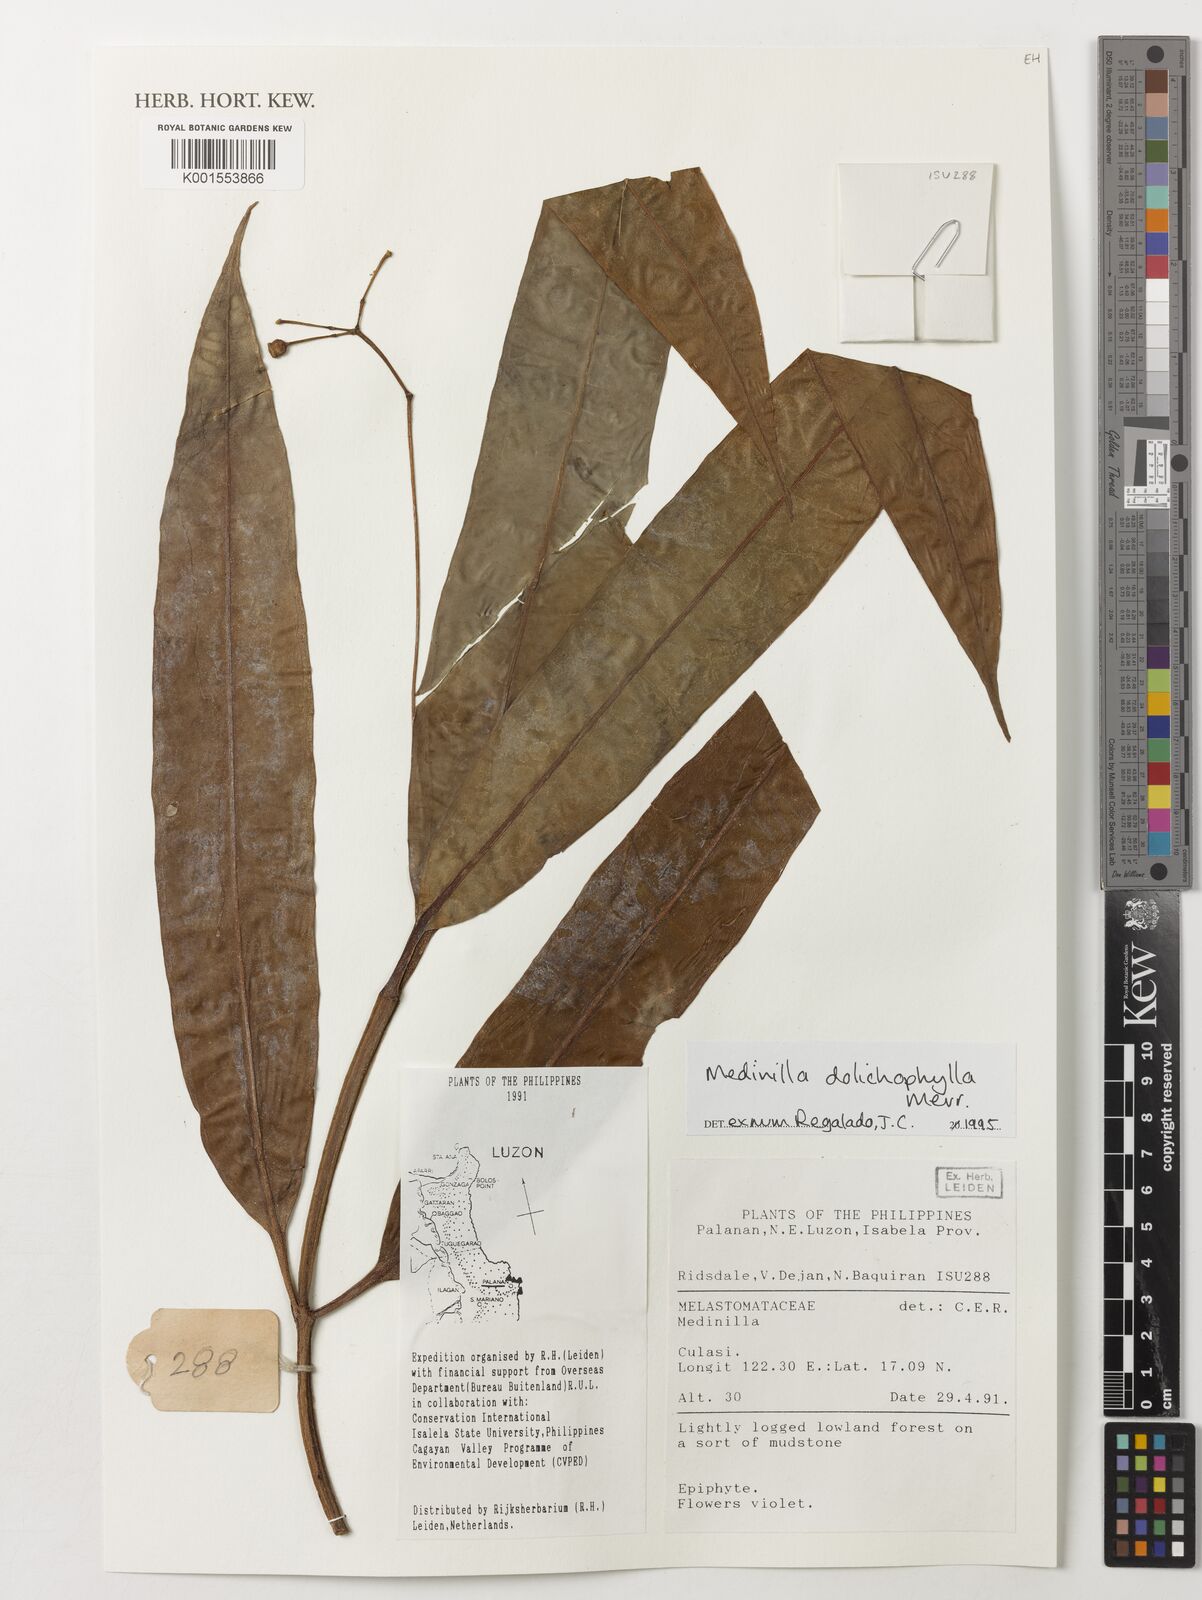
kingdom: Plantae
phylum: Tracheophyta
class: Magnoliopsida
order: Myrtales
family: Melastomataceae
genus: Medinilla
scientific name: Medinilla
